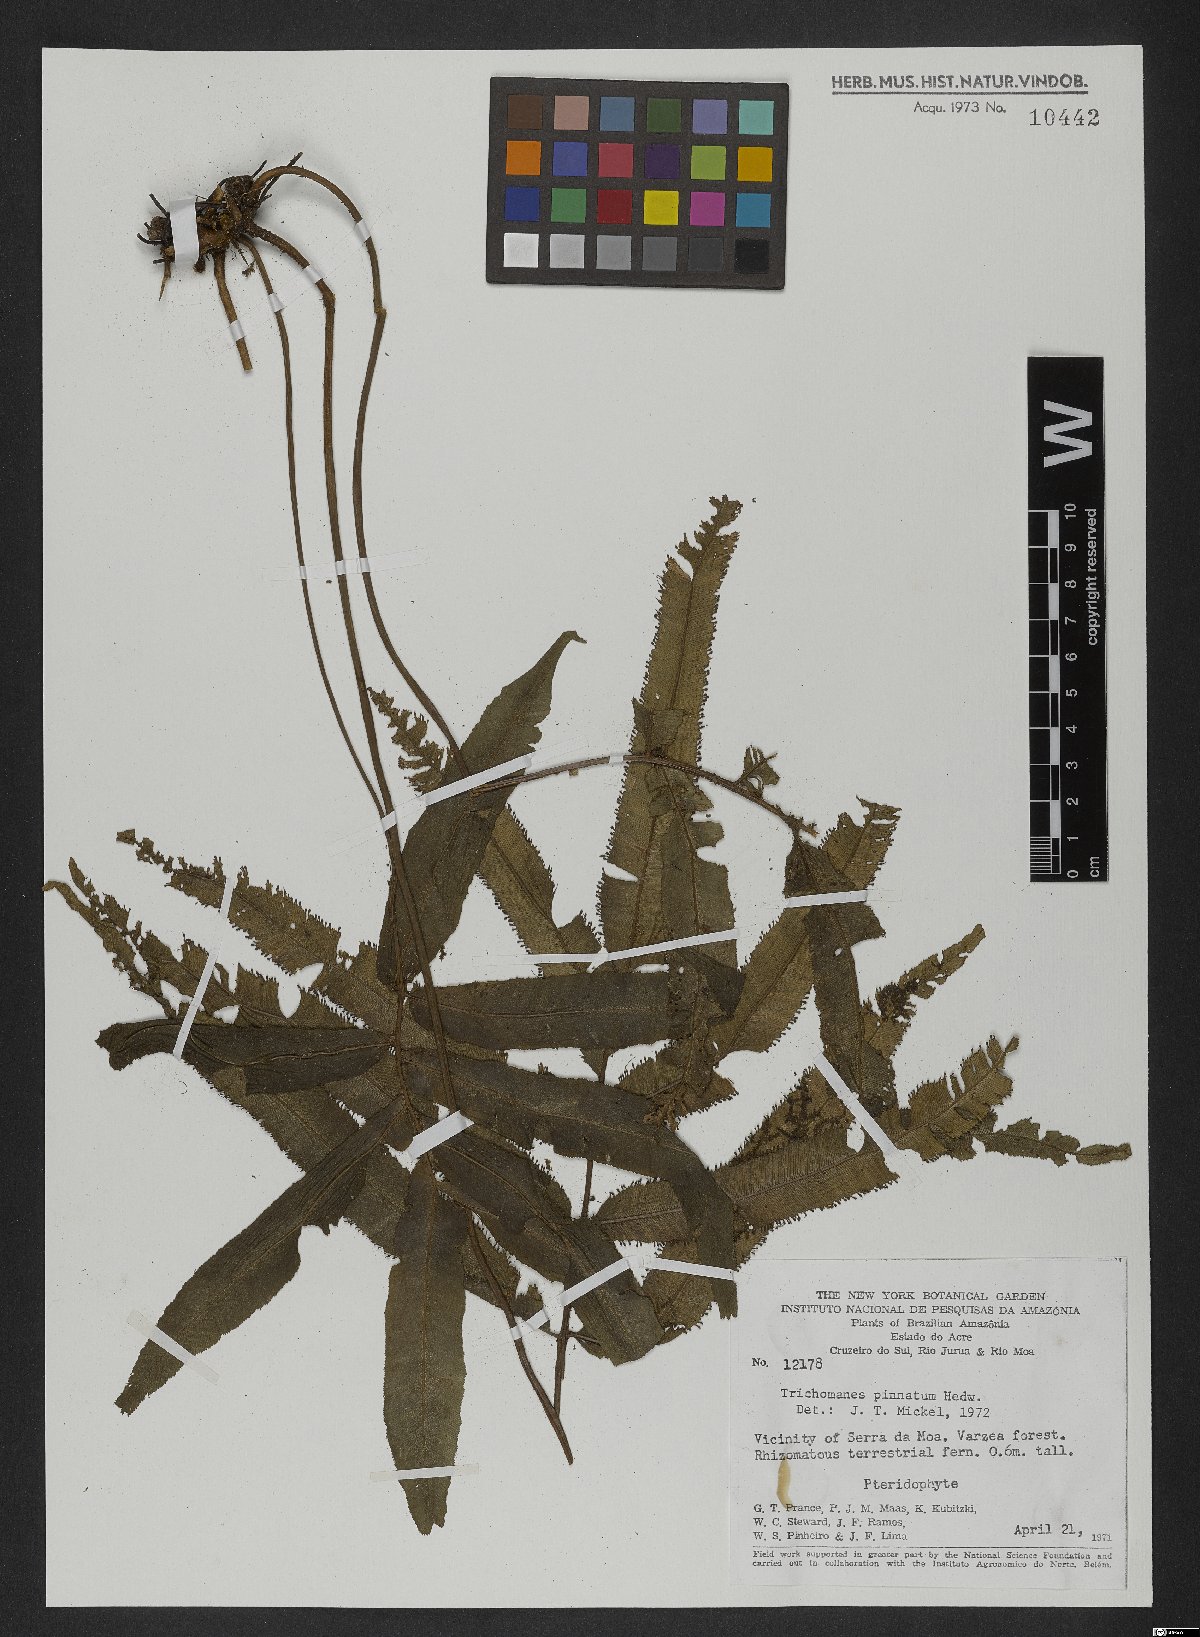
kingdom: Plantae
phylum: Tracheophyta
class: Polypodiopsida
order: Hymenophyllales
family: Hymenophyllaceae
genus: Trichomanes
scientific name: Trichomanes pinnatum
